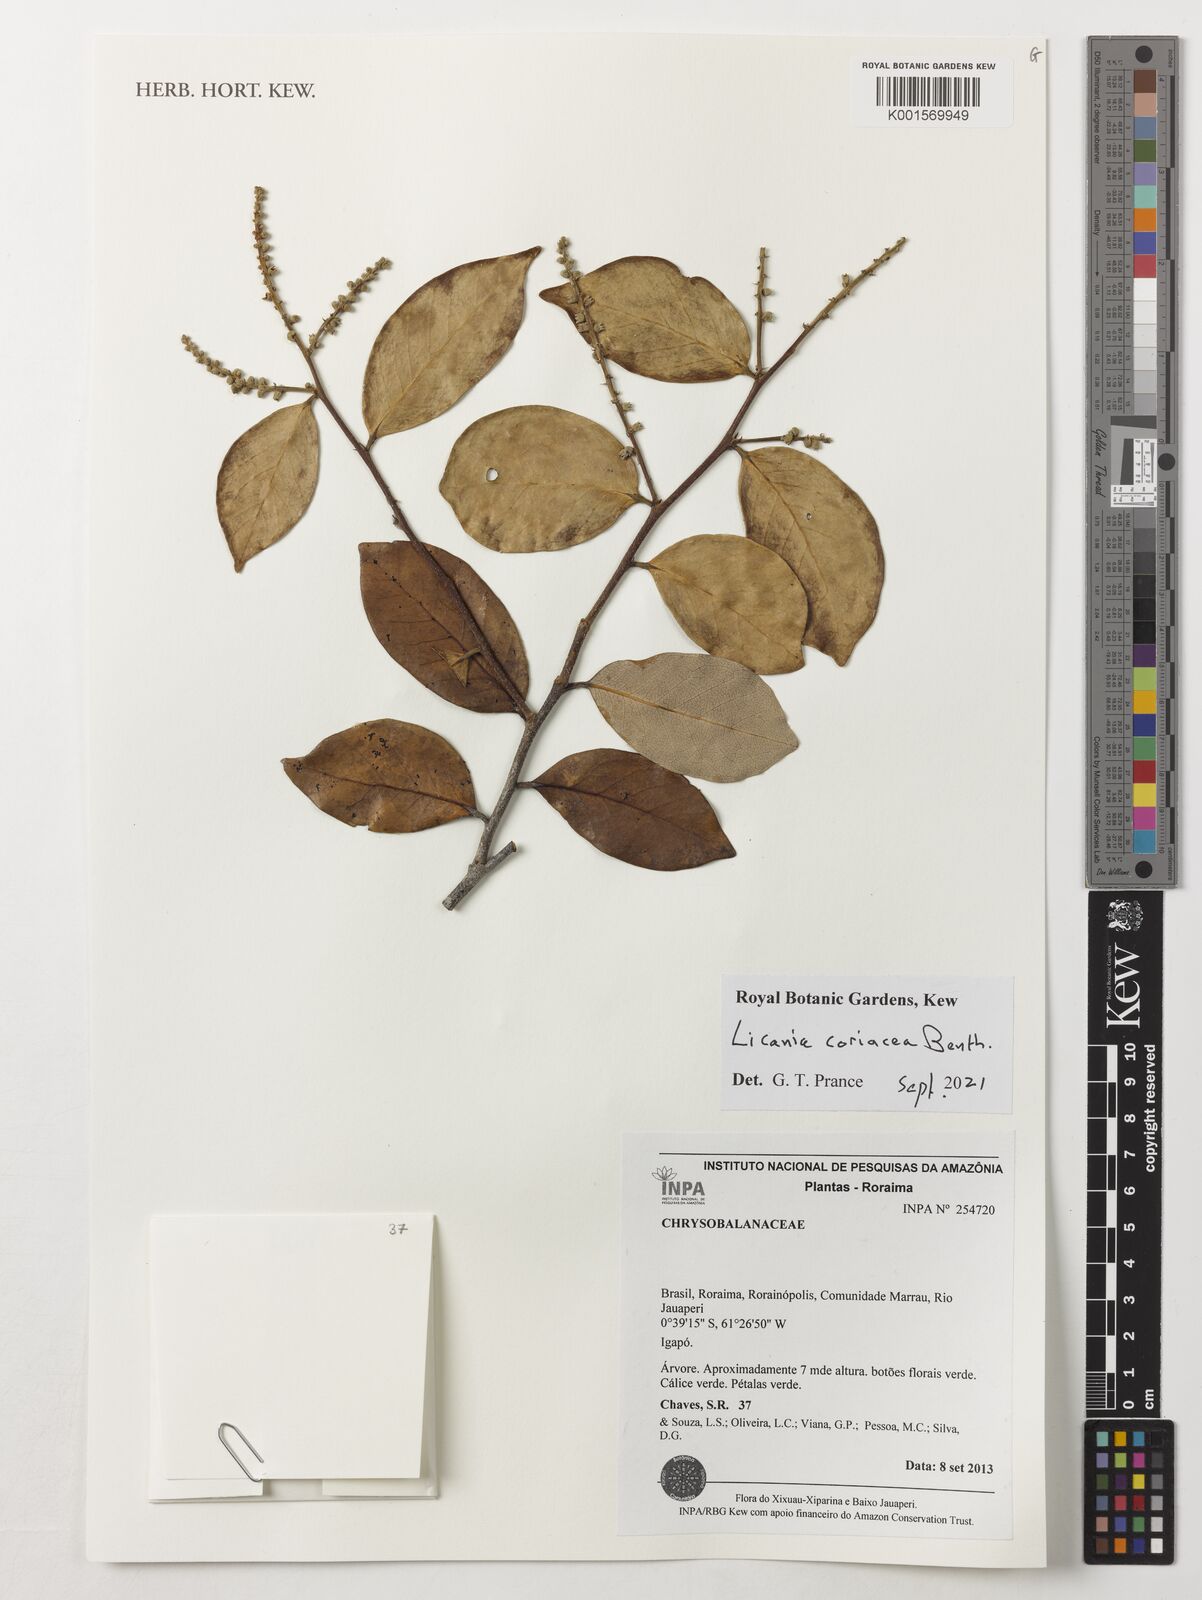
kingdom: Plantae
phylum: Tracheophyta
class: Magnoliopsida
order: Malpighiales
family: Chrysobalanaceae
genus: Licania
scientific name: Licania coriacea
